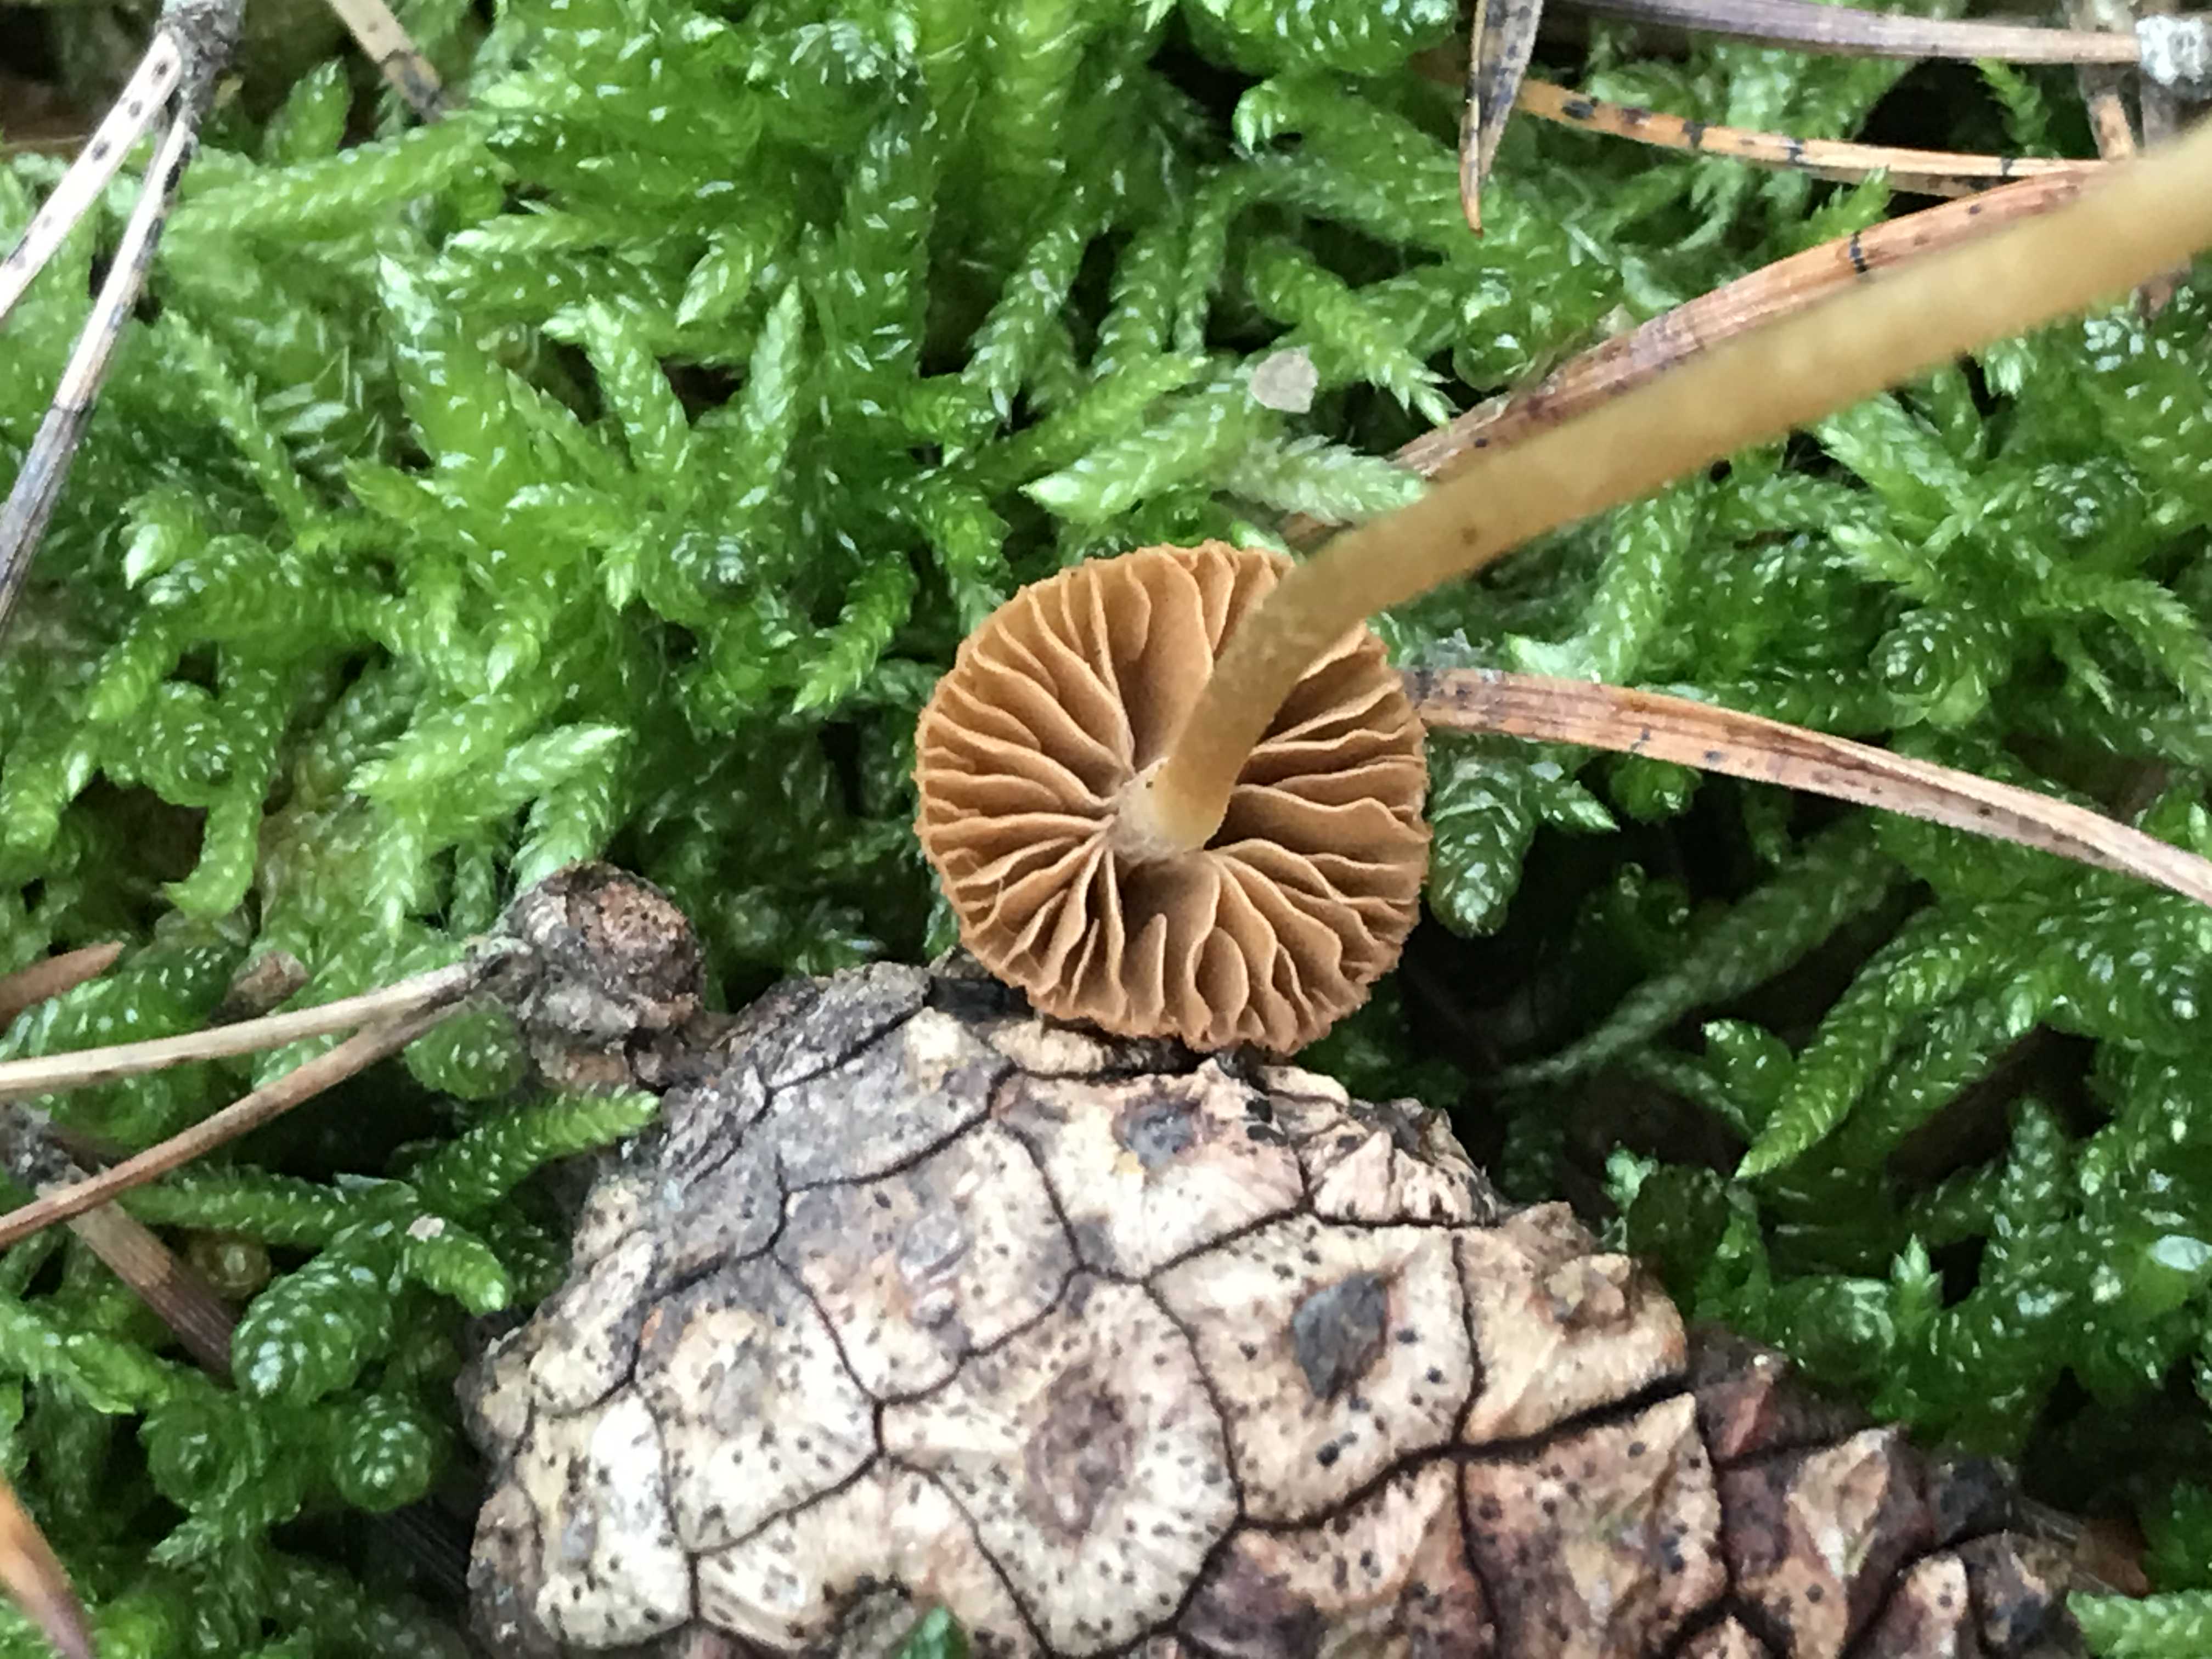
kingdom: Fungi
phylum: Basidiomycota
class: Agaricomycetes
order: Agaricales
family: Hymenogastraceae
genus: Galerina
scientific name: Galerina
